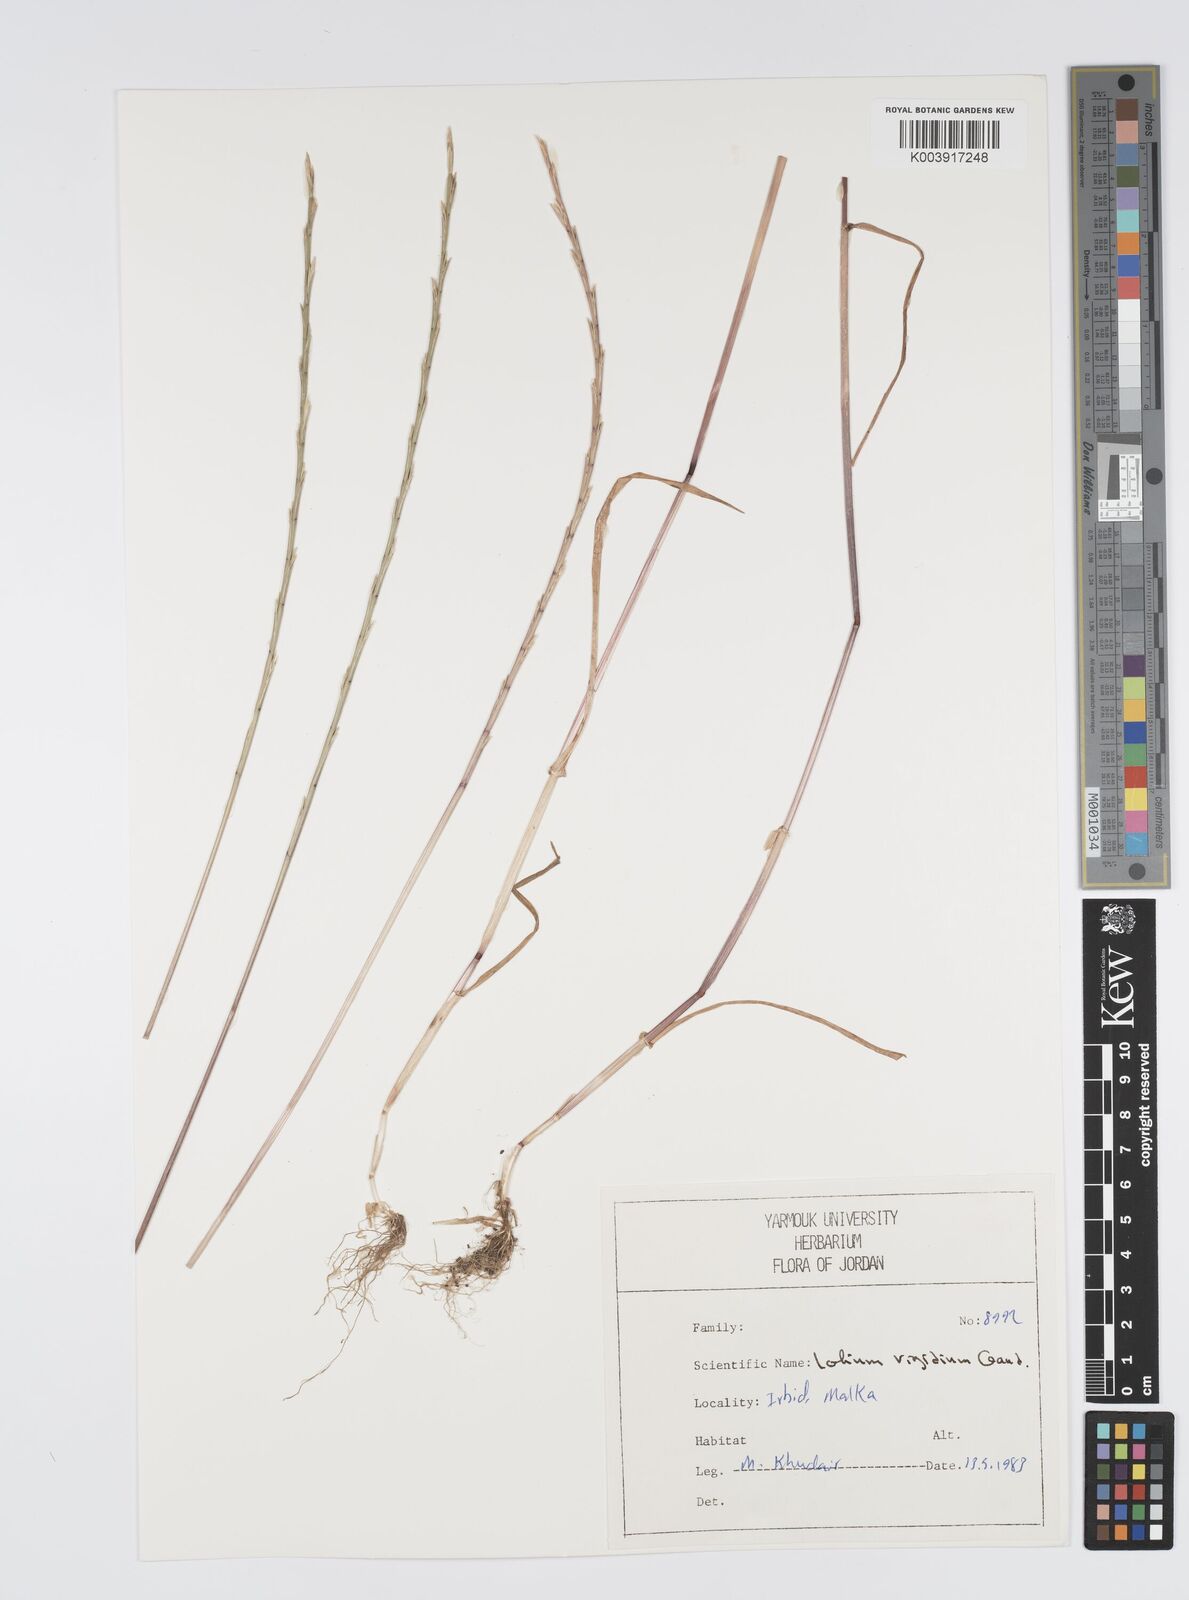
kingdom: Plantae
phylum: Tracheophyta
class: Liliopsida
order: Poales
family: Poaceae
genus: Lolium
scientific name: Lolium rigidum
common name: Wimmera ryegrass
